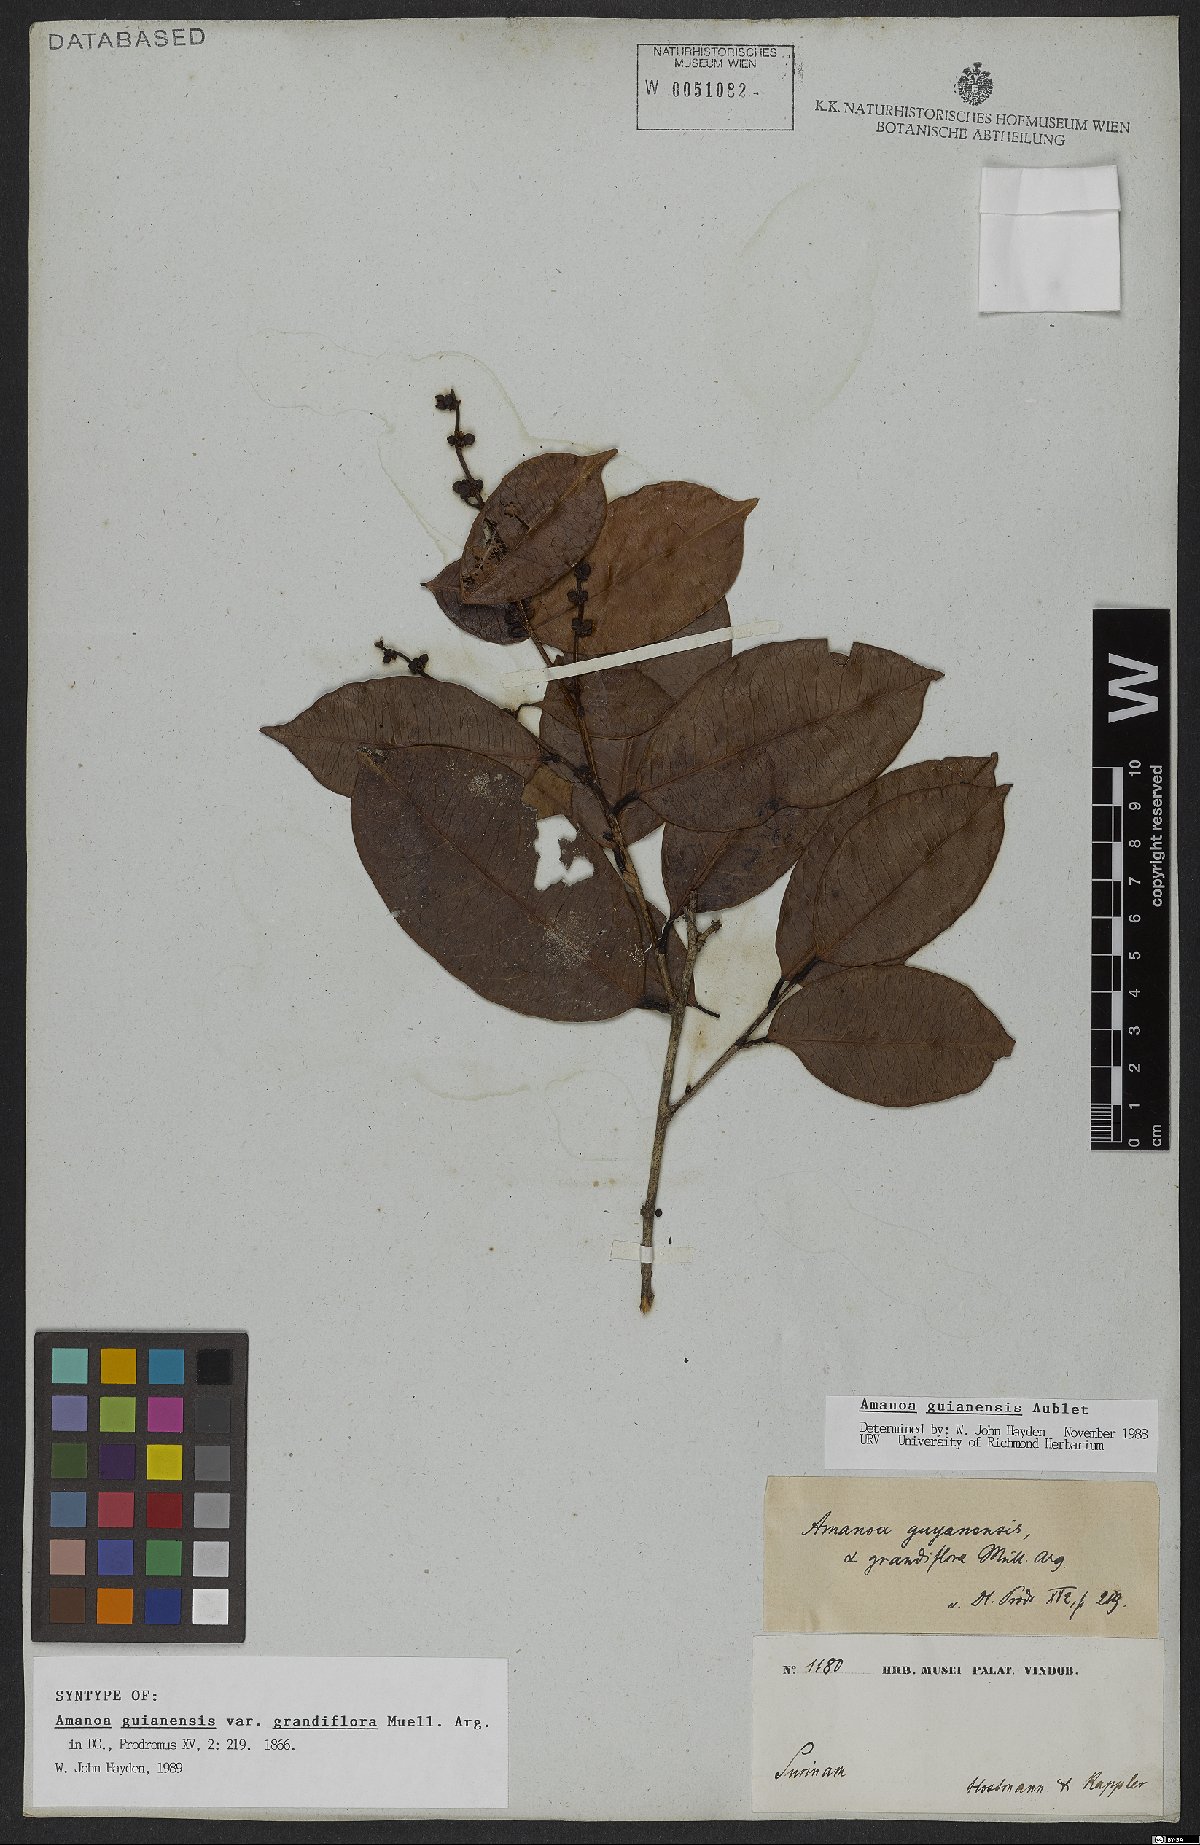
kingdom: Plantae
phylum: Tracheophyta
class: Magnoliopsida
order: Malpighiales
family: Phyllanthaceae
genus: Amanoa
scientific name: Amanoa guianensis
